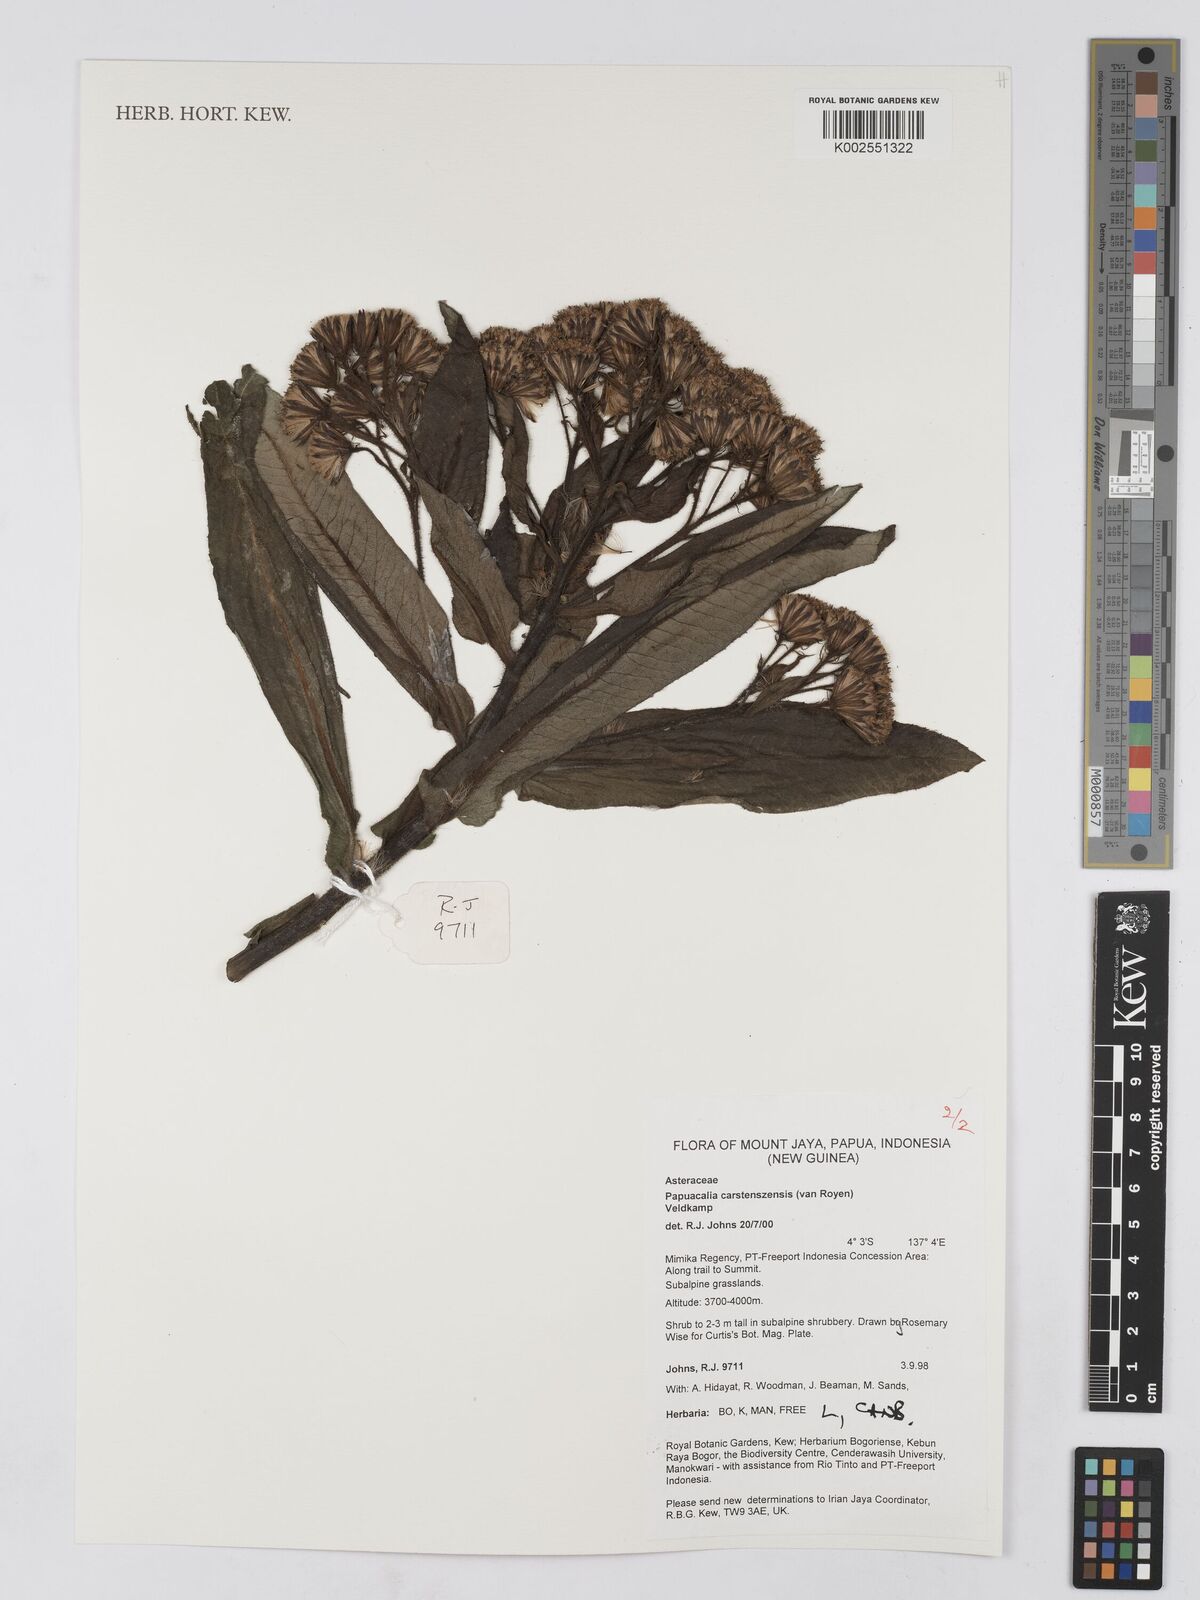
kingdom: Plantae
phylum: Tracheophyta
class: Magnoliopsida
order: Asterales
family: Asteraceae
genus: Papuacalia
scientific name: Papuacalia carstenszensis
